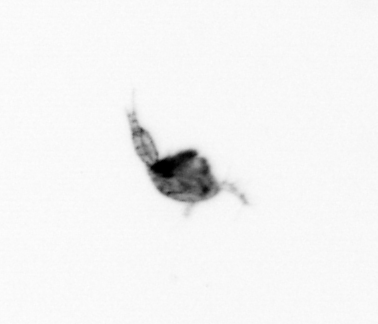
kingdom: Animalia
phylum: Arthropoda
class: Copepoda
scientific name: Copepoda
